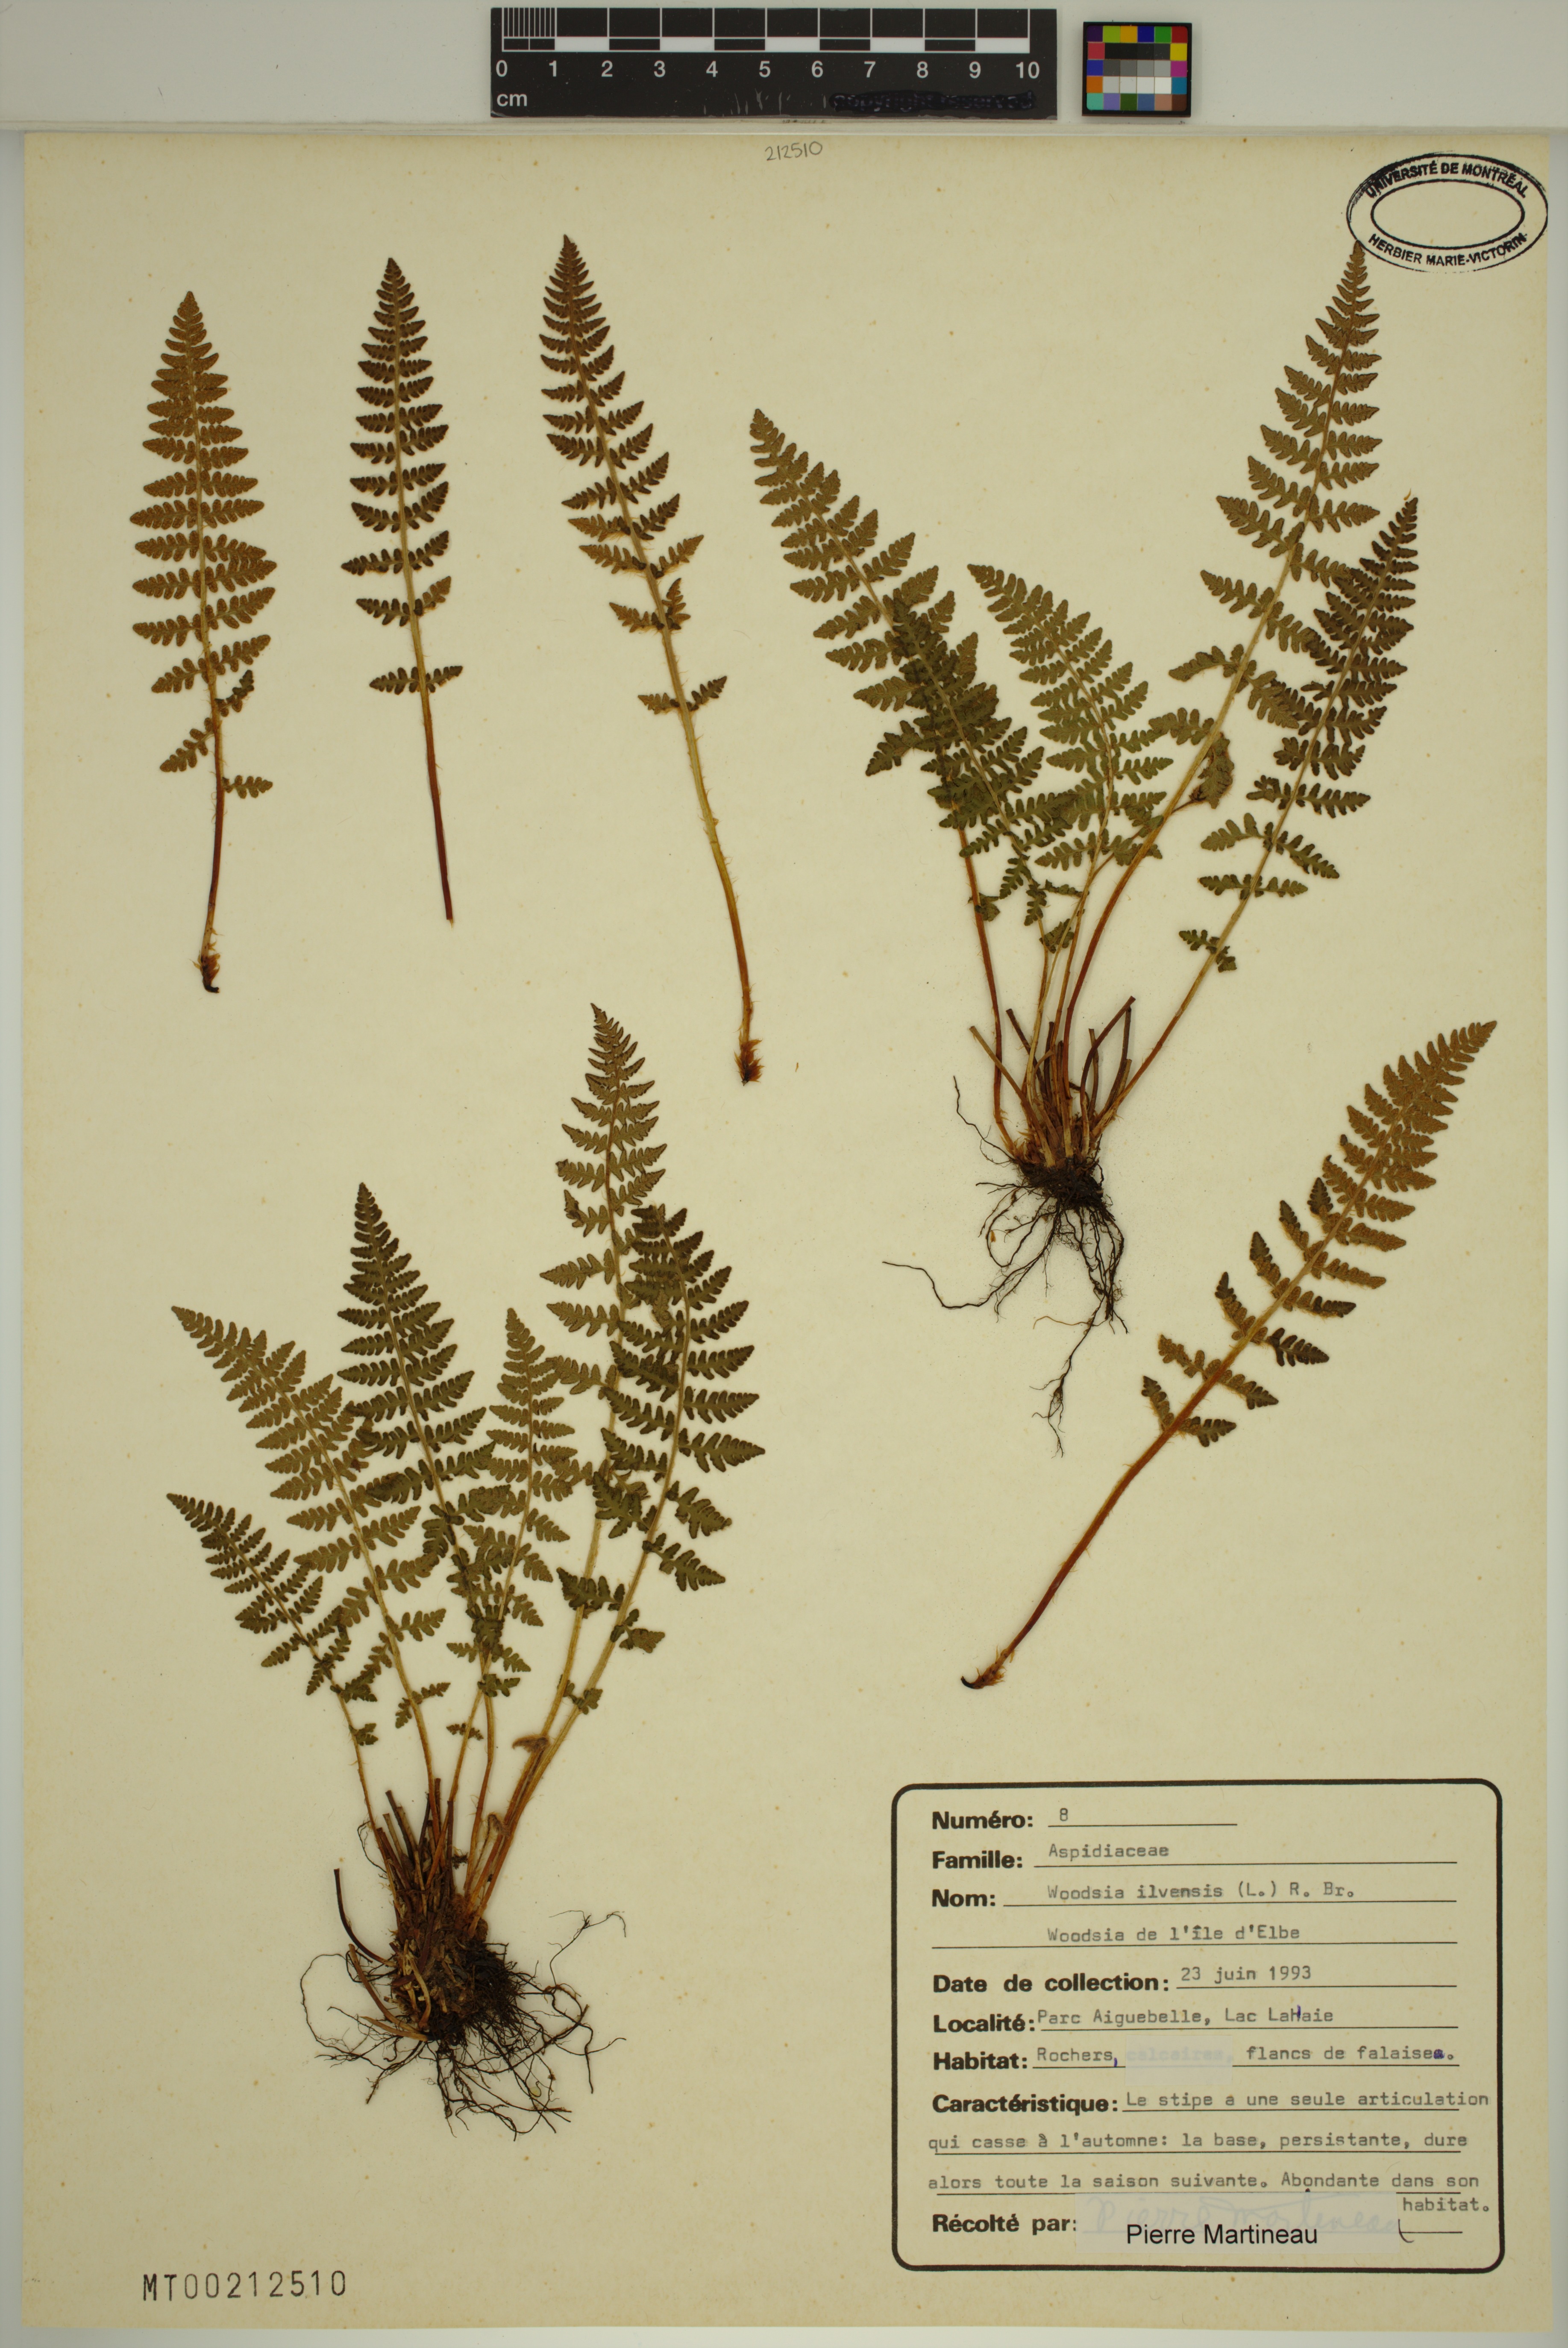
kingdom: Plantae
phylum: Tracheophyta
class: Polypodiopsida
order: Polypodiales
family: Woodsiaceae
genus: Woodsia
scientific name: Woodsia ilvensis
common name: Fragrant woodsia
